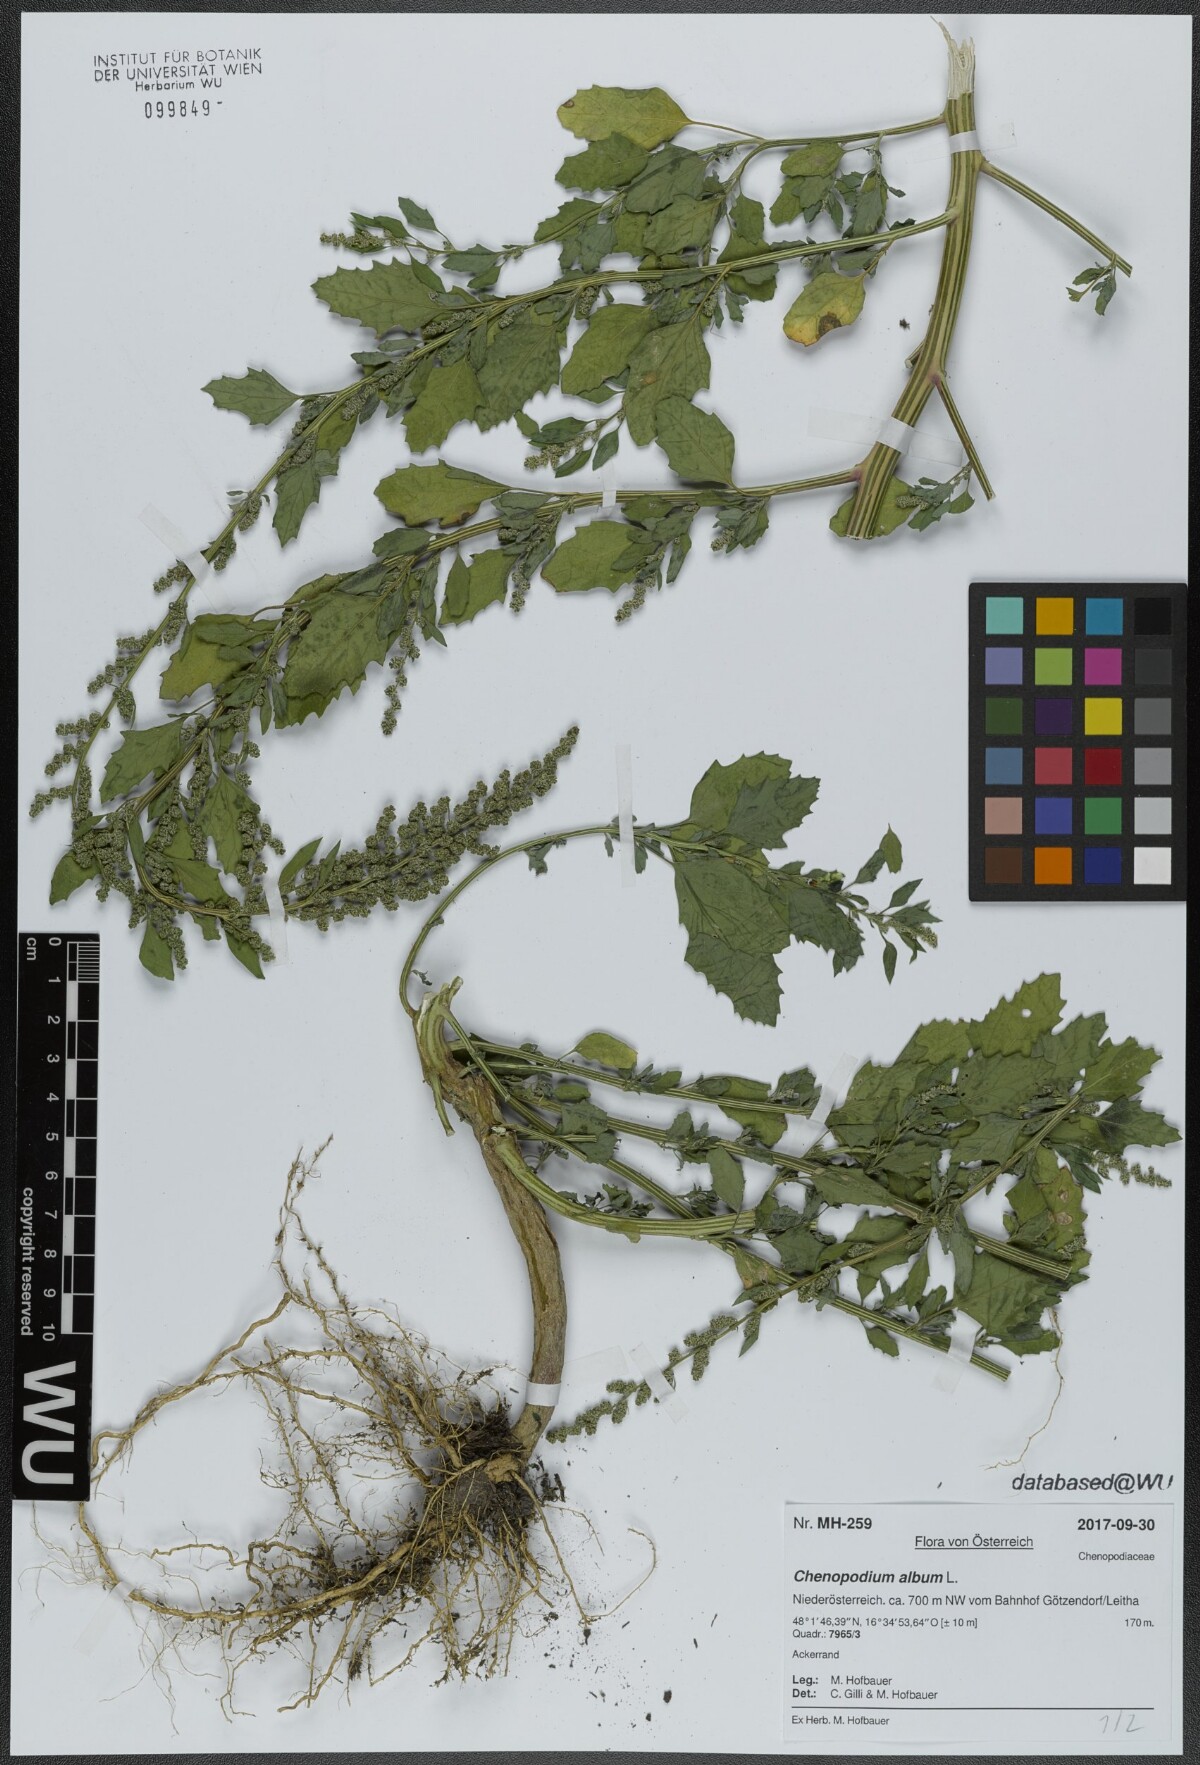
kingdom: Plantae
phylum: Tracheophyta
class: Magnoliopsida
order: Caryophyllales
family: Amaranthaceae
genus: Chenopodium
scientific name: Chenopodium album
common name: Fat-hen
